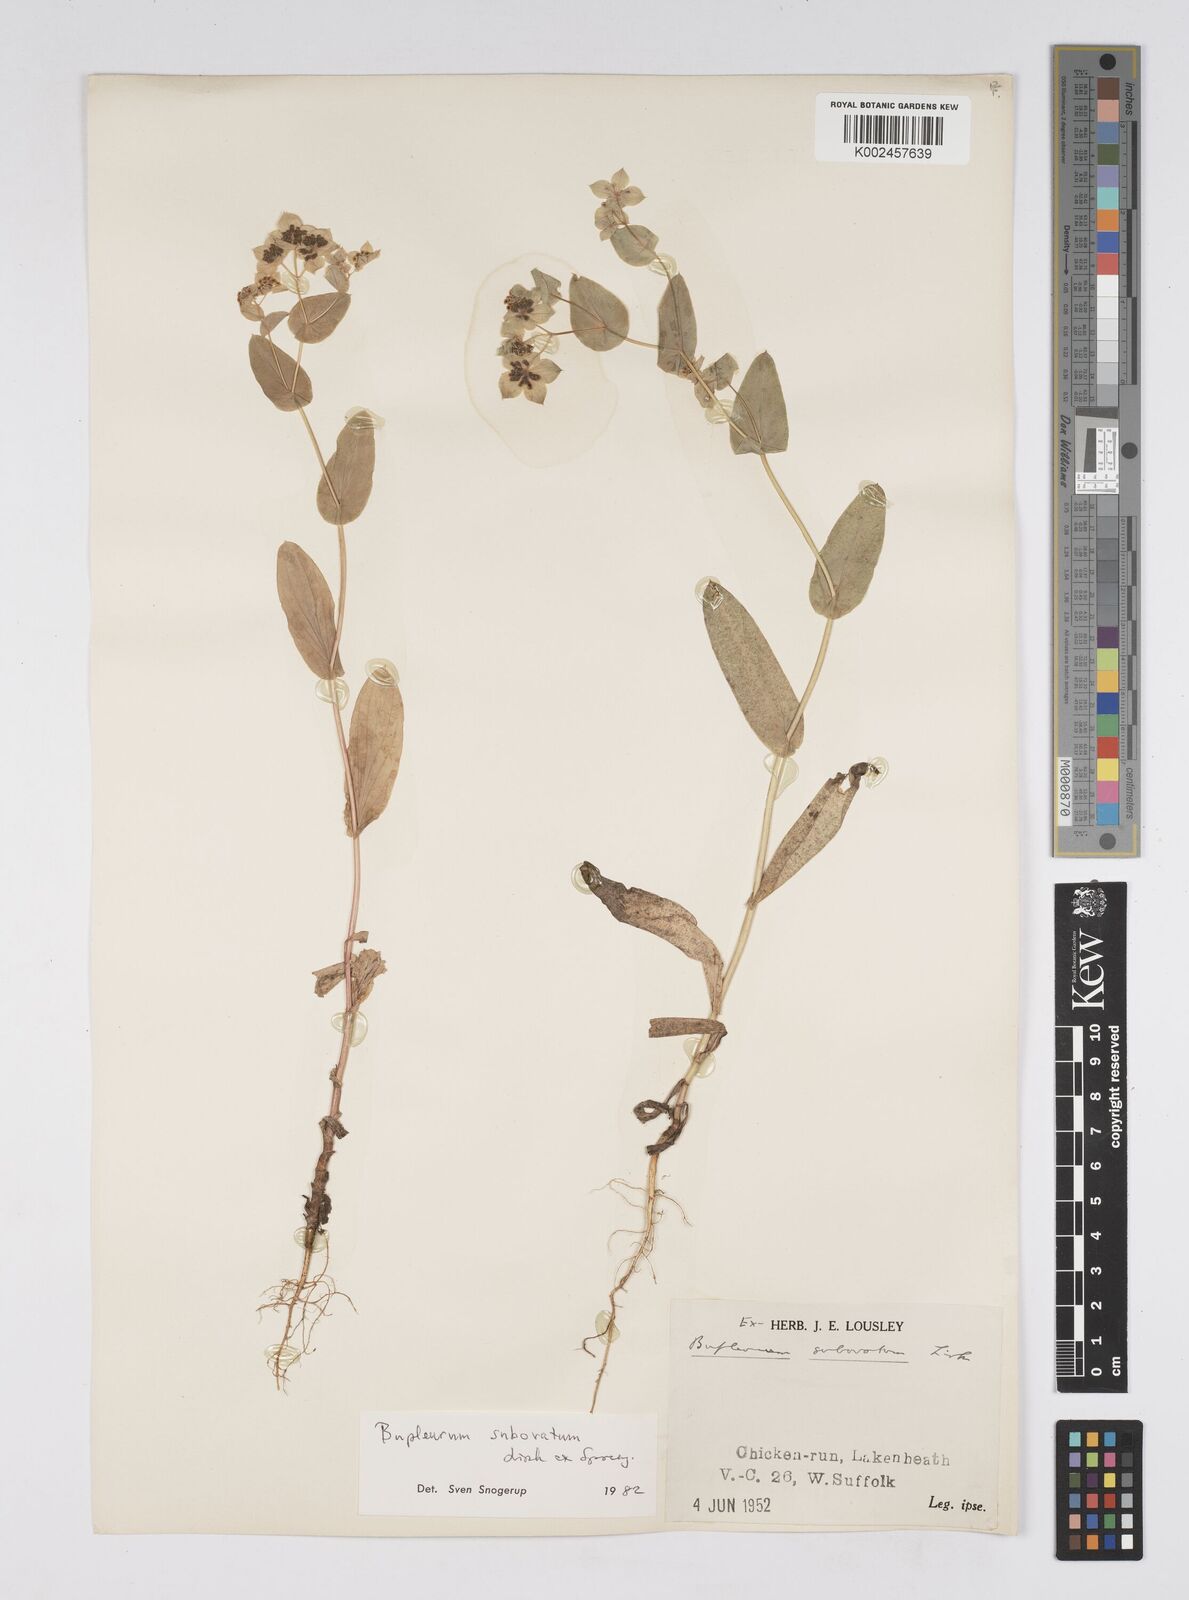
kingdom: Plantae
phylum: Tracheophyta
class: Magnoliopsida
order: Apiales
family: Apiaceae
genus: Bupleurum
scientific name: Bupleurum subovatum
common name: False thorow-wax
